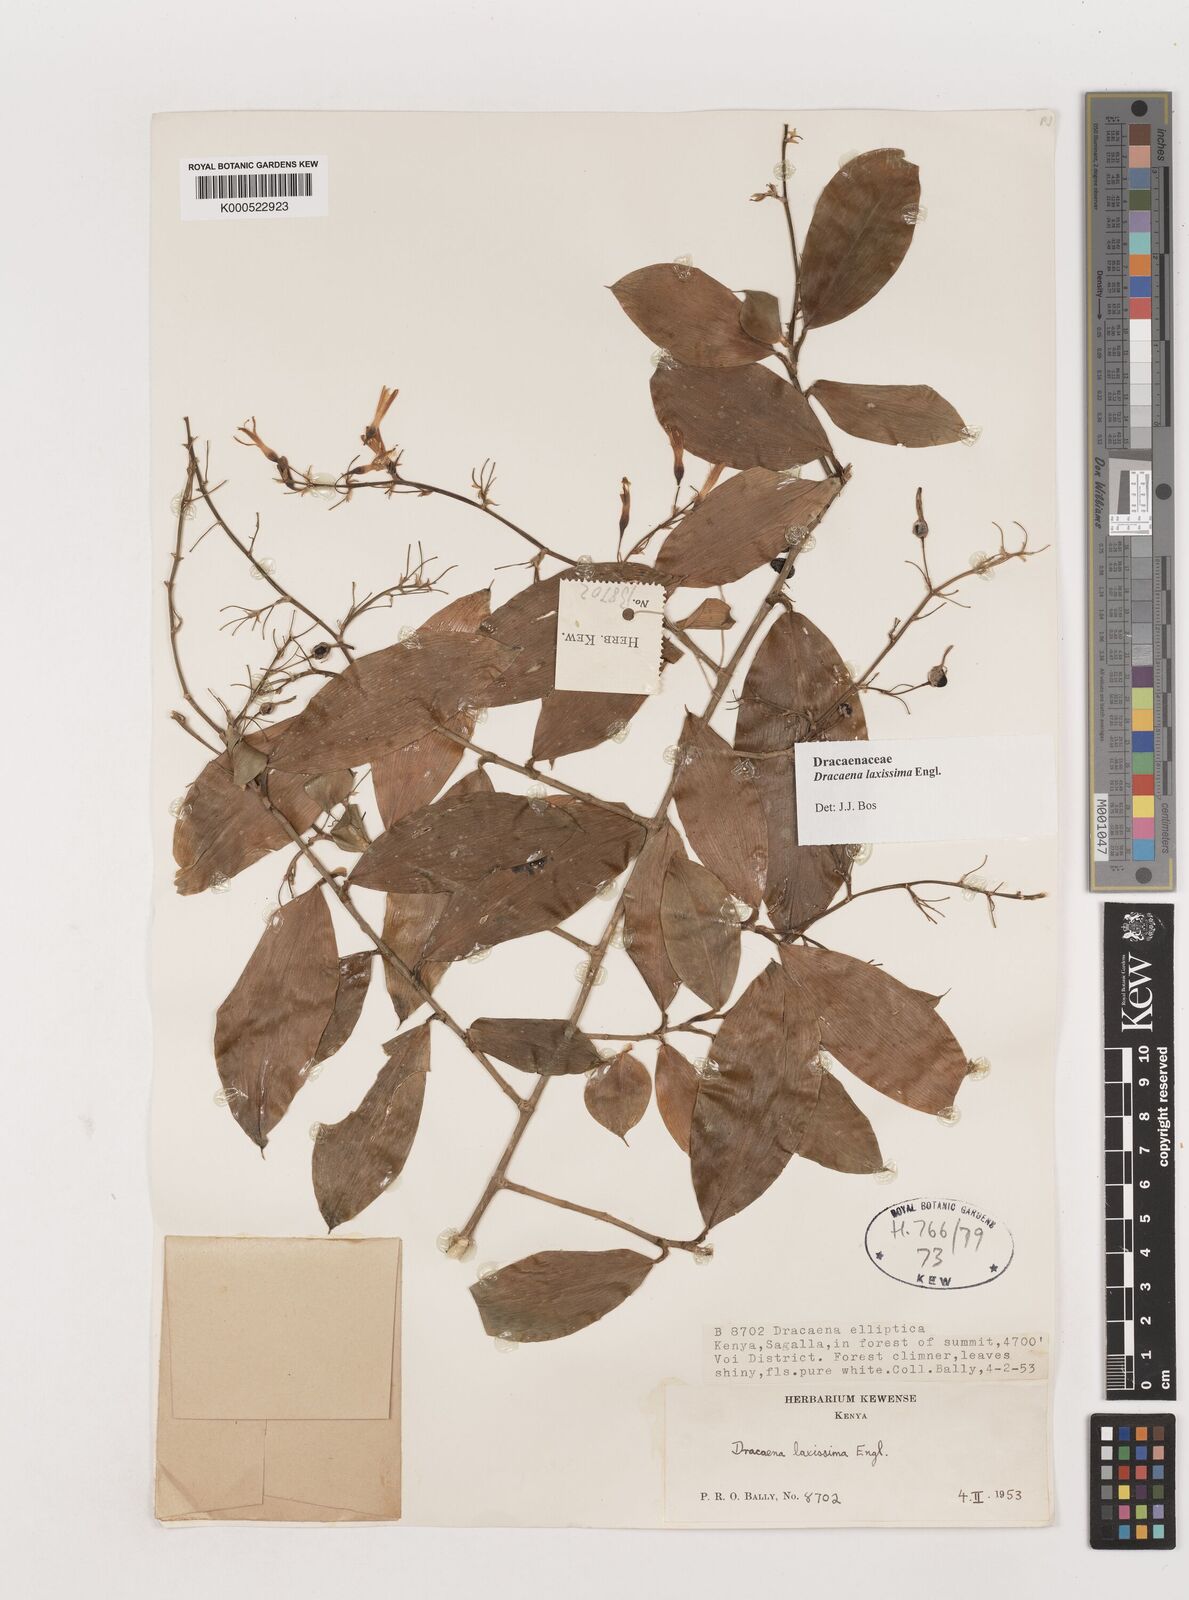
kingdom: Plantae
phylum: Tracheophyta
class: Liliopsida
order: Asparagales
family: Asparagaceae
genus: Dracaena
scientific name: Dracaena laxissima
